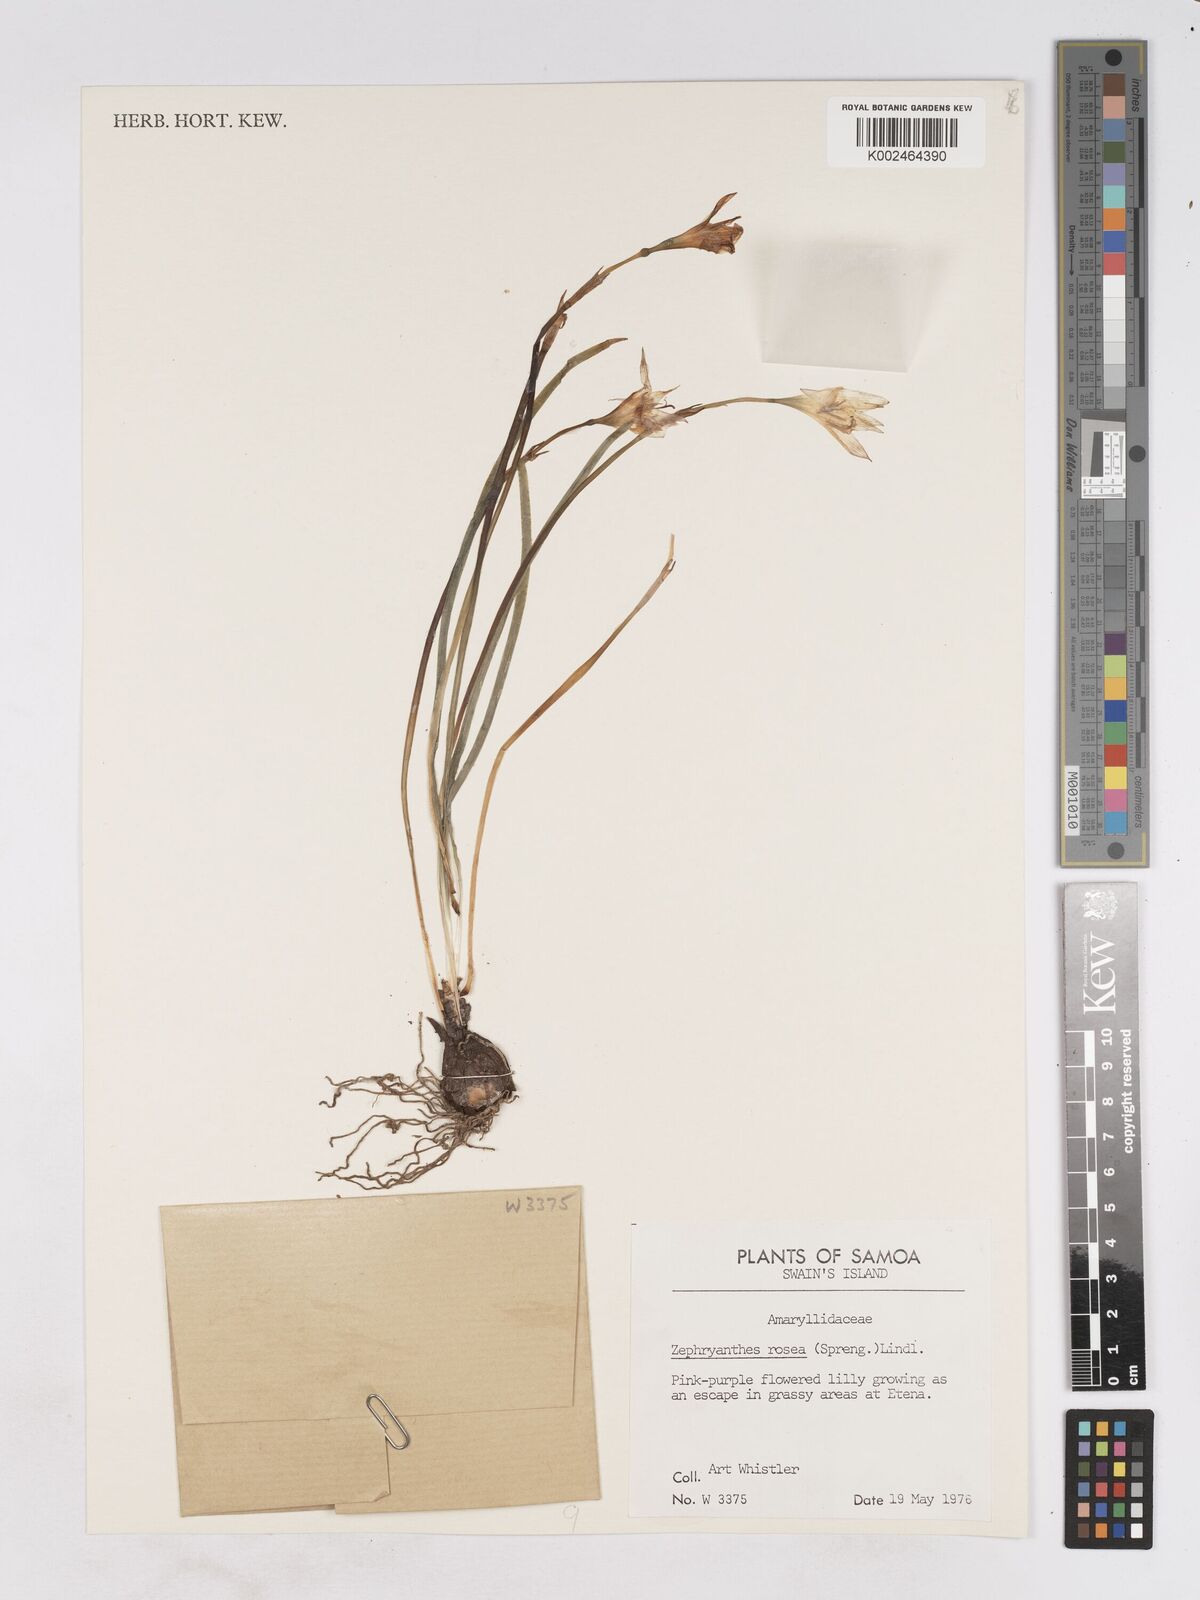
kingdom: Plantae
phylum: Tracheophyta
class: Liliopsida
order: Asparagales
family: Amaryllidaceae
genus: Zephyranthes
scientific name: Zephyranthes rosea
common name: Cuban zephyrlily
